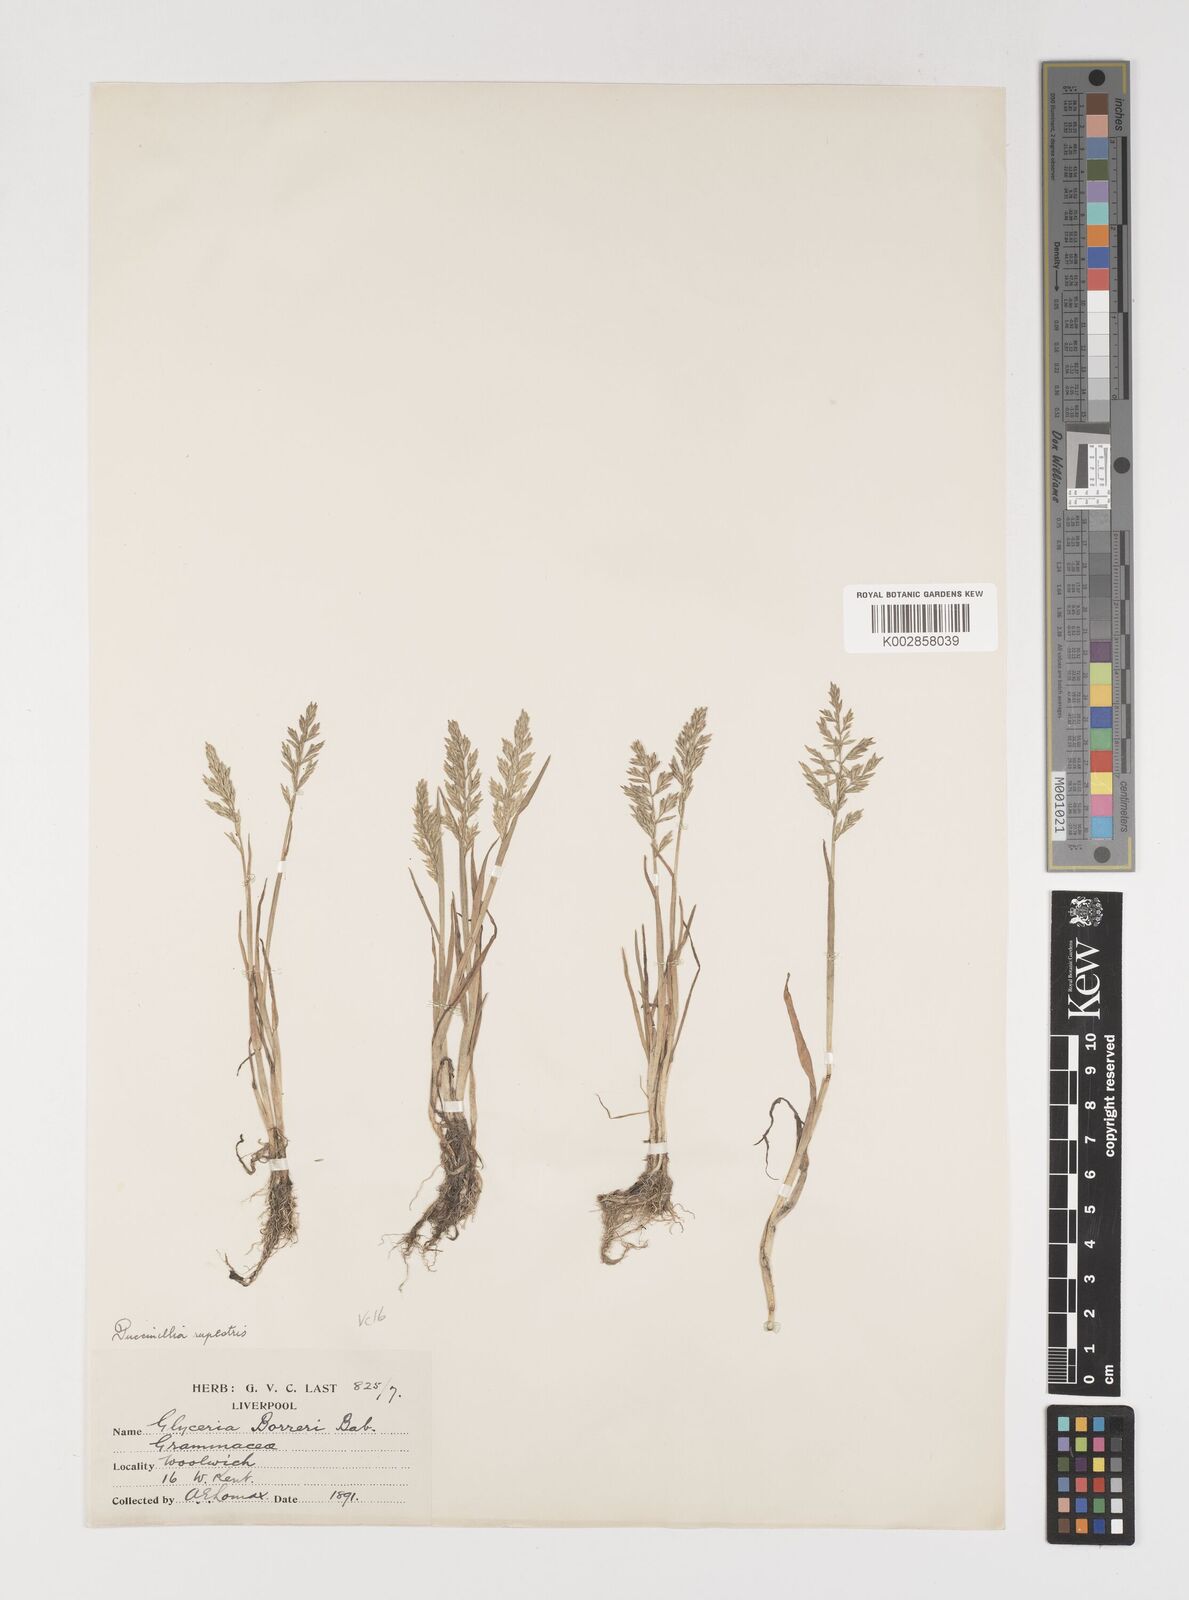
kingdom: Plantae
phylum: Tracheophyta
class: Liliopsida
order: Poales
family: Poaceae
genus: Puccinellia
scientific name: Puccinellia rupestris
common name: Stiff saltmarsh-grass
